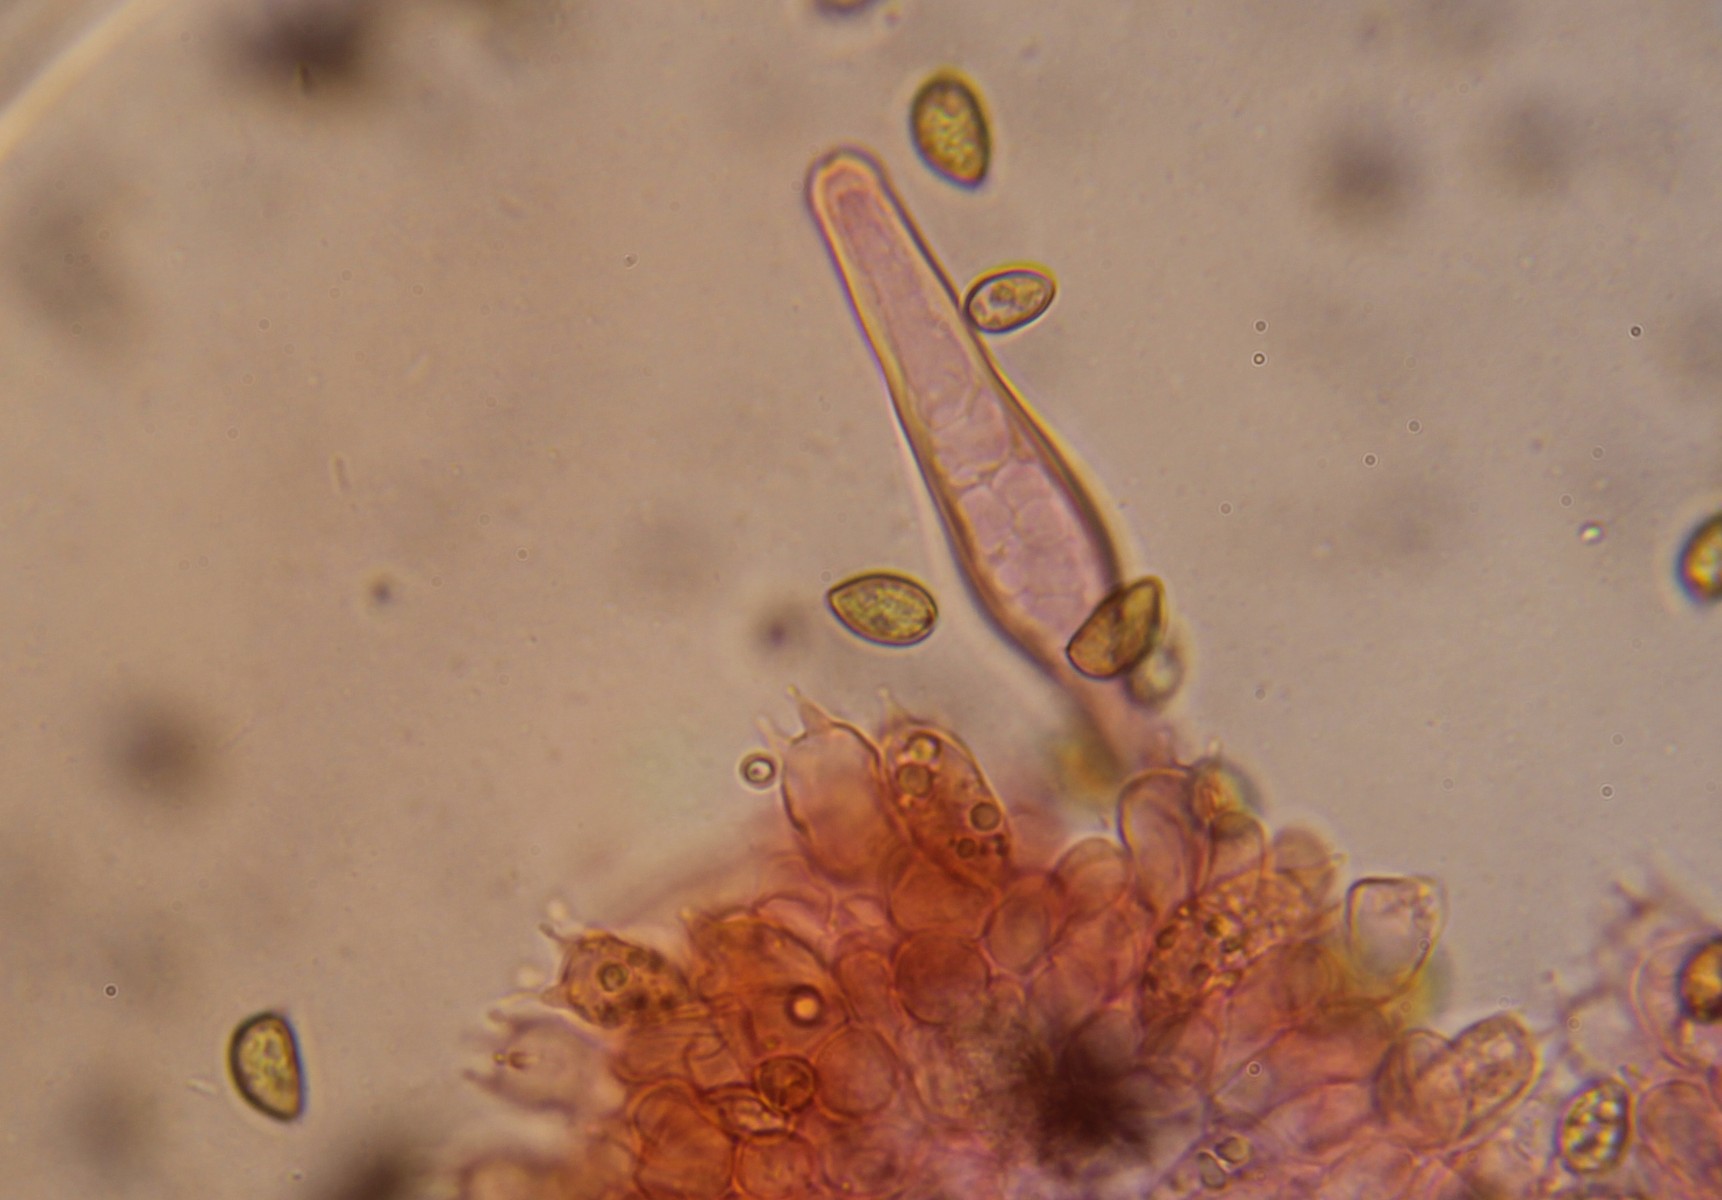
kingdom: Fungi
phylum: Basidiomycota
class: Agaricomycetes
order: Agaricales
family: Inocybaceae
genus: Inocybe
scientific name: Inocybe
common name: trævlhat
